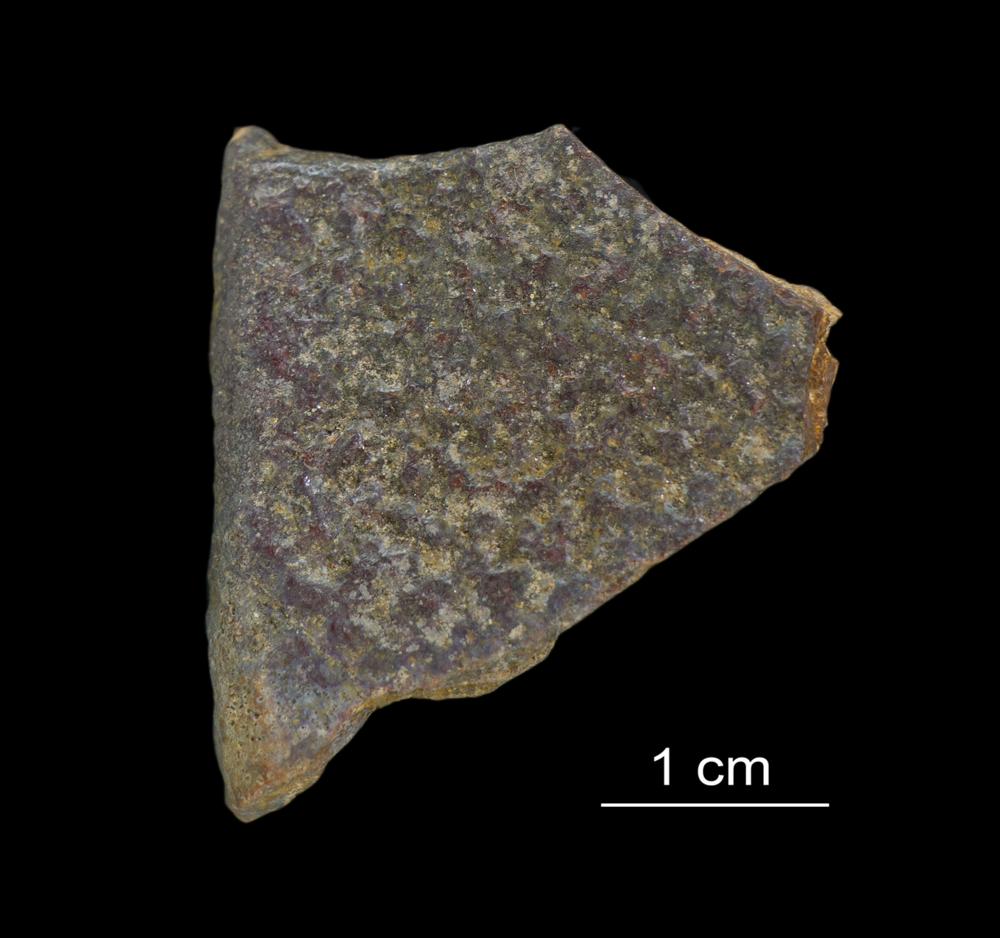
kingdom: Animalia
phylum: Chordata
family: Asterolepididae
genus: Asterolepis
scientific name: Asterolepis ornata
